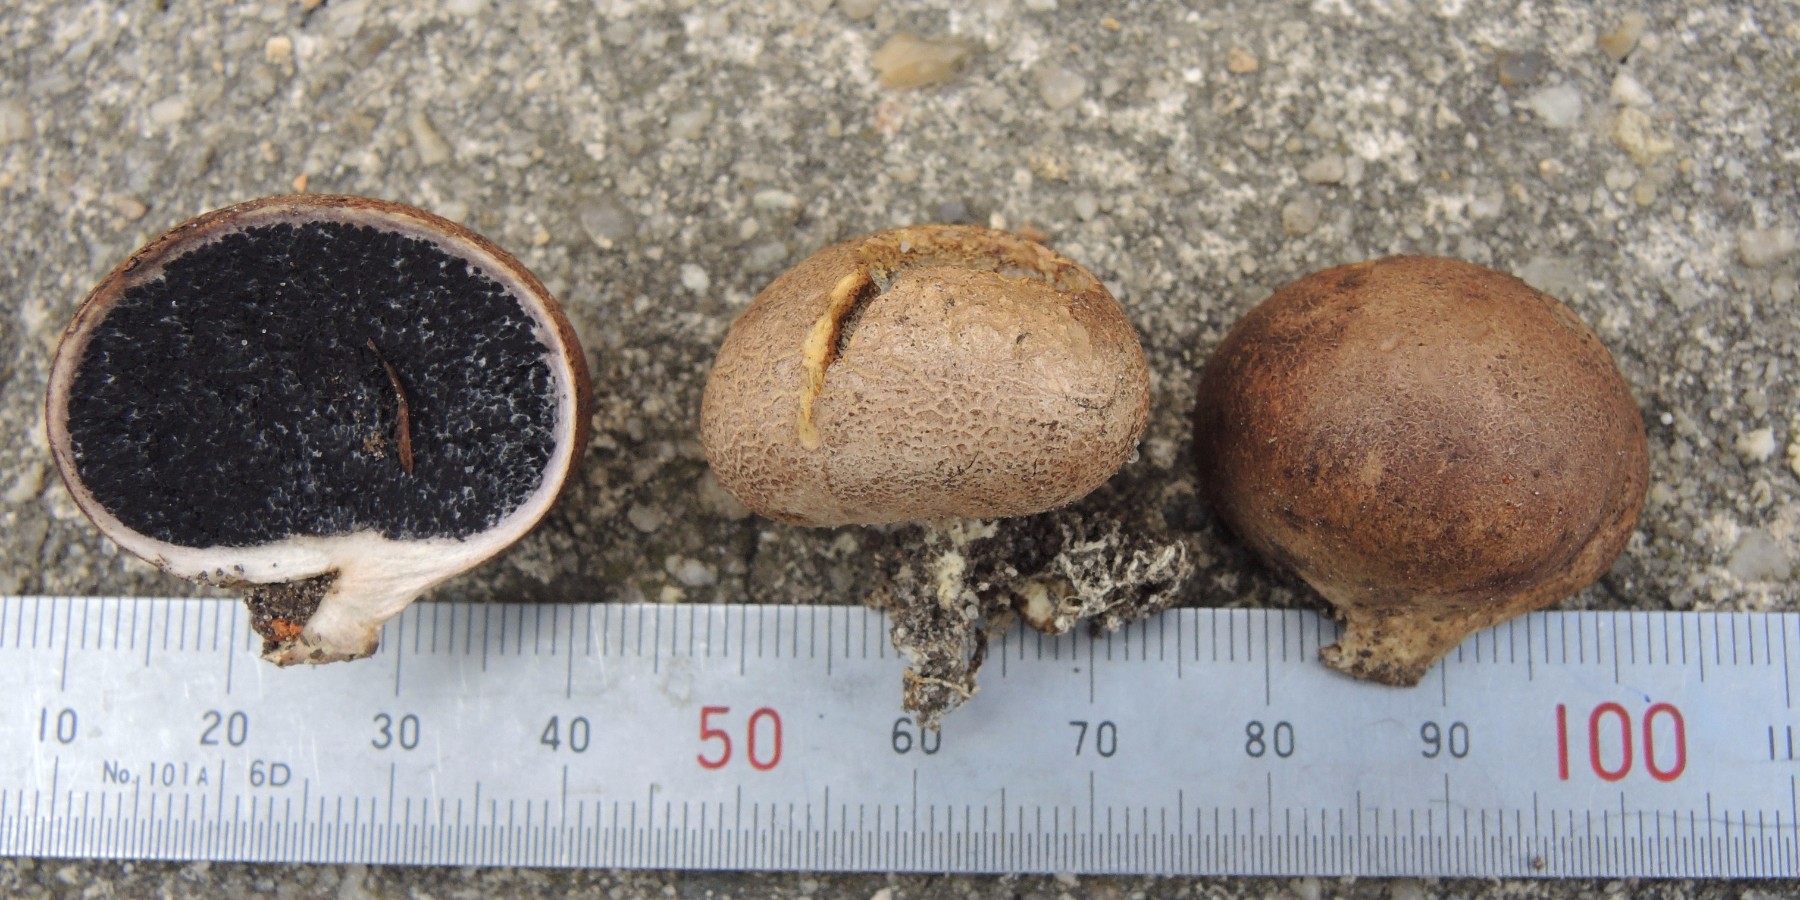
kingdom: Fungi
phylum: Basidiomycota
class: Agaricomycetes
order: Boletales
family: Sclerodermataceae
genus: Scleroderma
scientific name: Scleroderma bovista
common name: bovist-bruskbold
